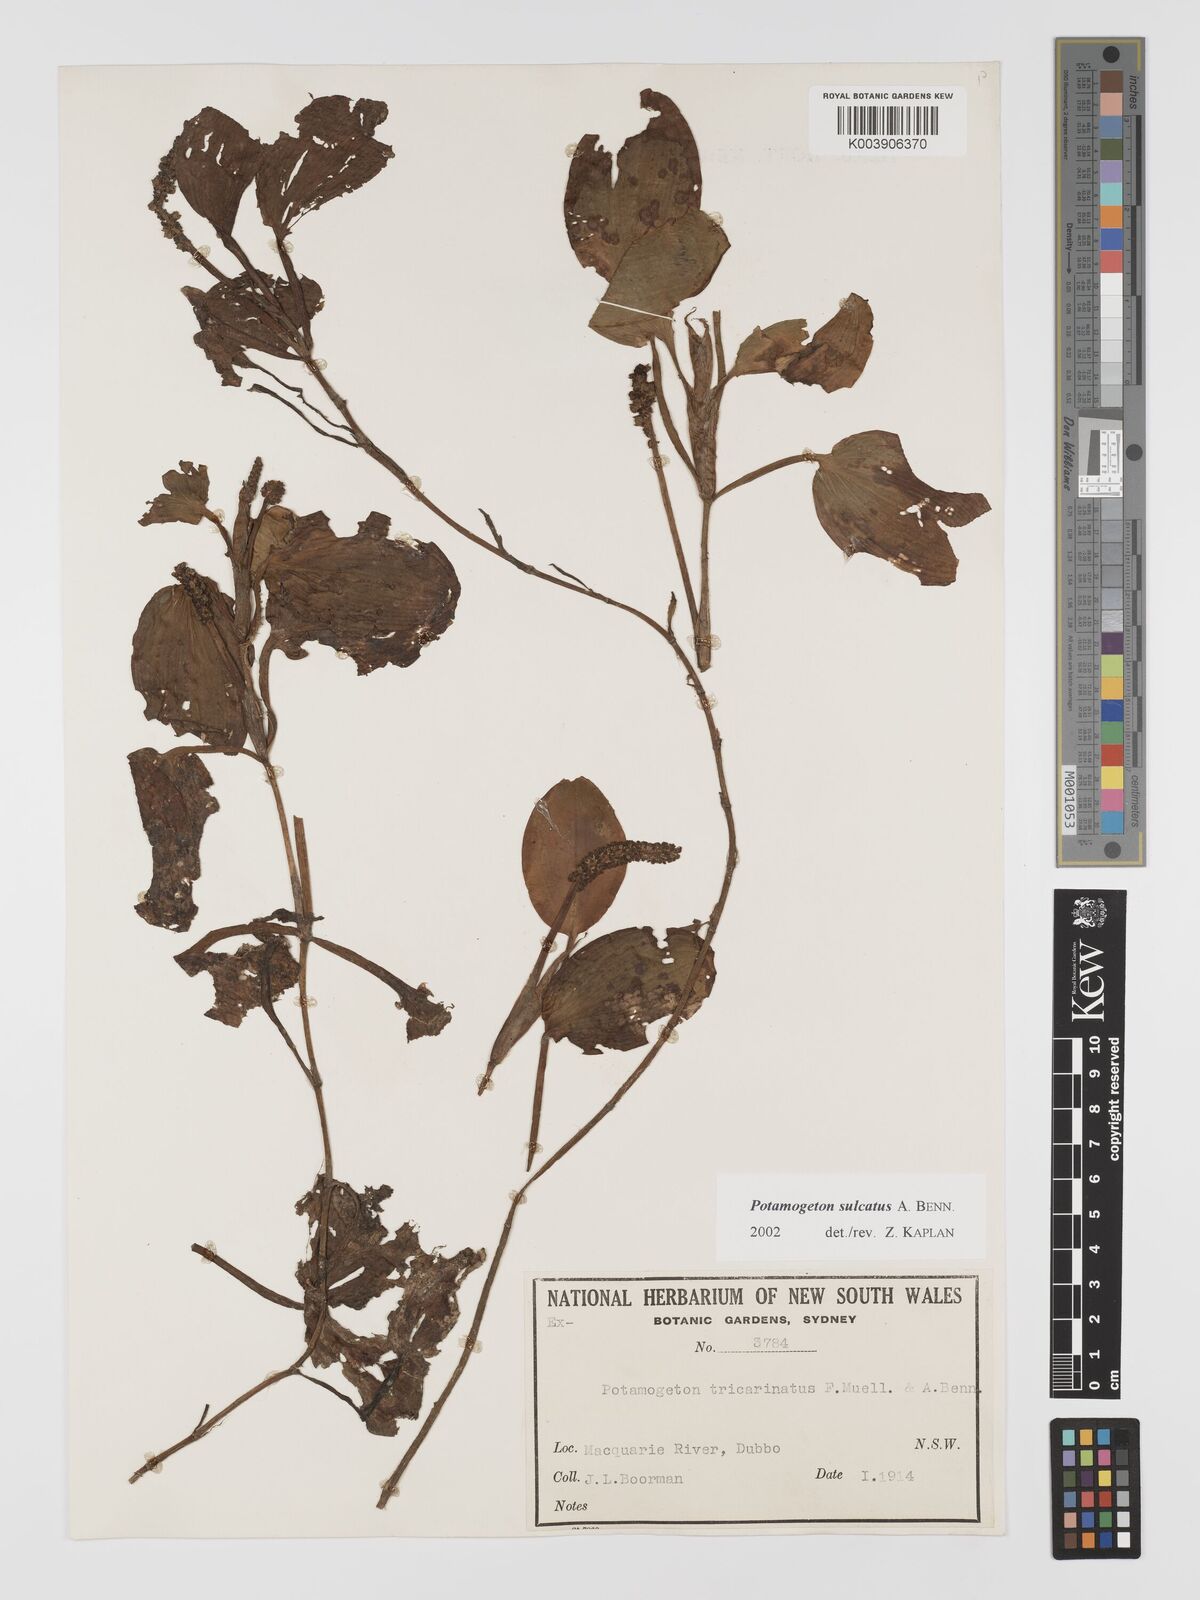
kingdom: Plantae
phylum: Tracheophyta
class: Liliopsida
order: Alismatales
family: Potamogetonaceae
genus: Potamogeton
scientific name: Potamogeton sulcatus
